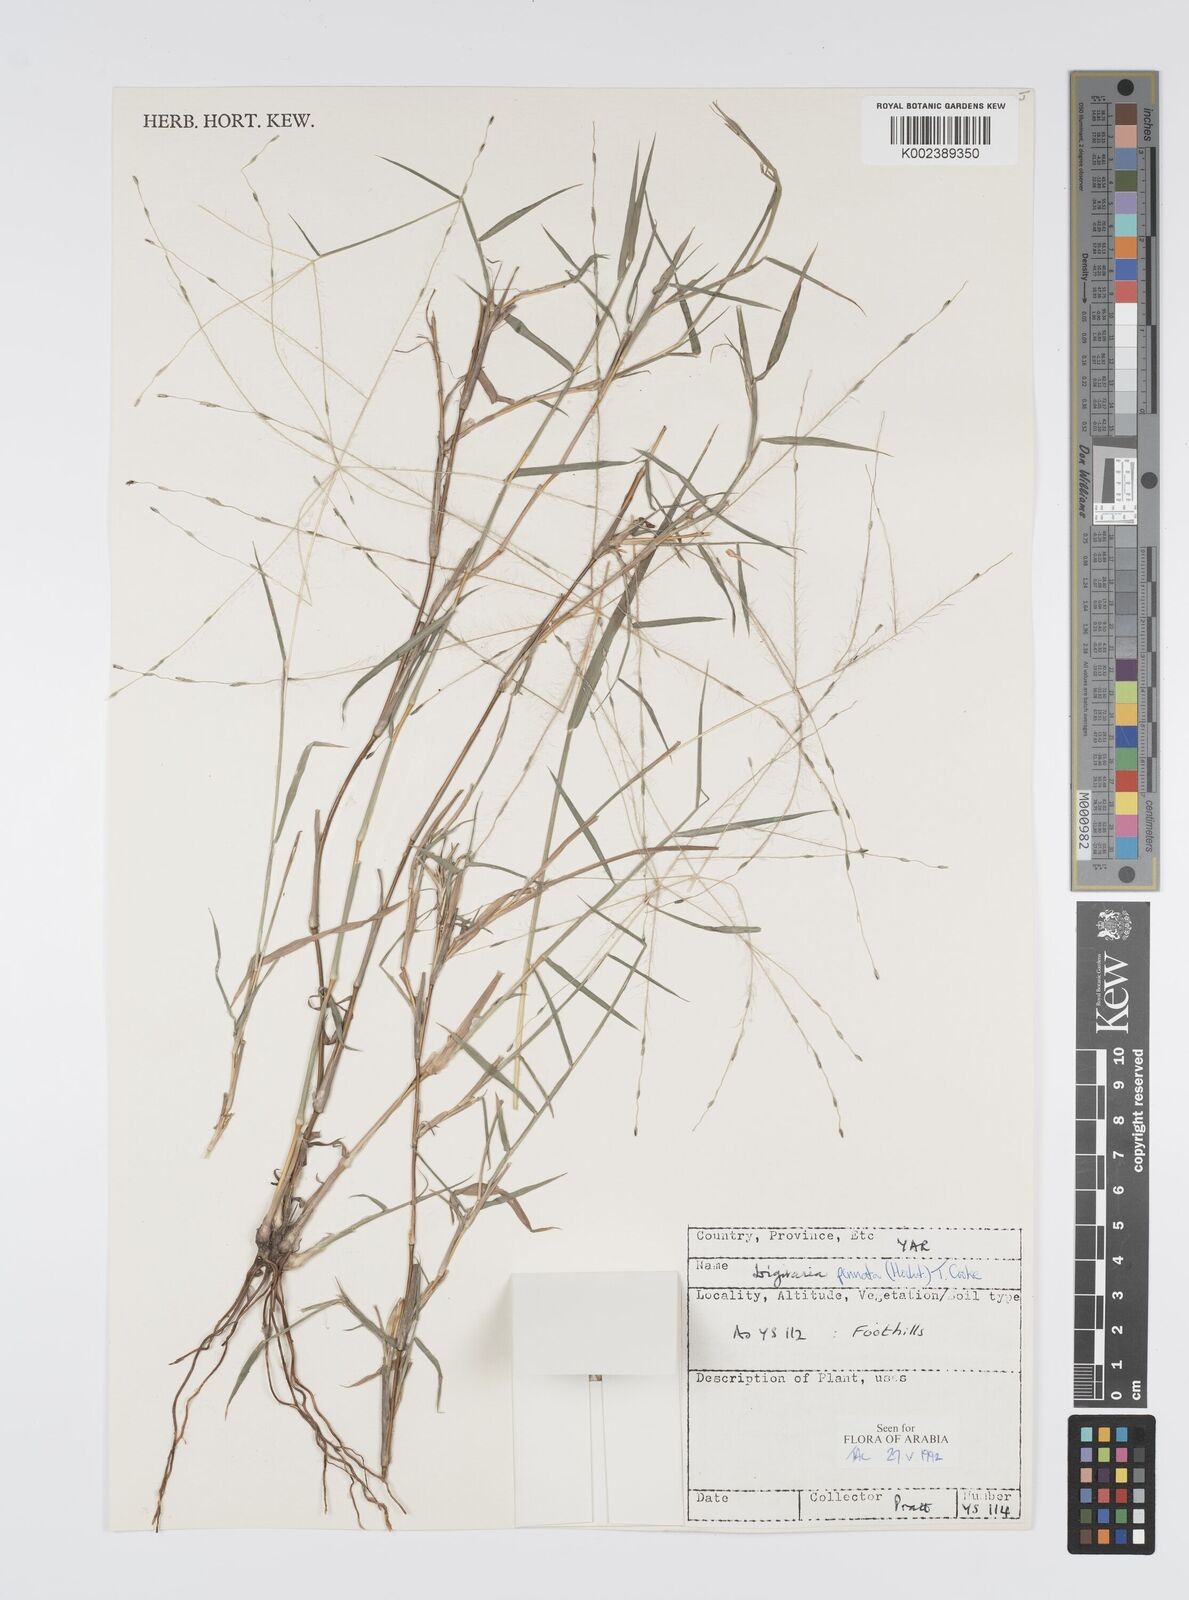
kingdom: Plantae
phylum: Tracheophyta
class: Liliopsida
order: Poales
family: Poaceae
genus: Digitaria
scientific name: Digitaria pennata
